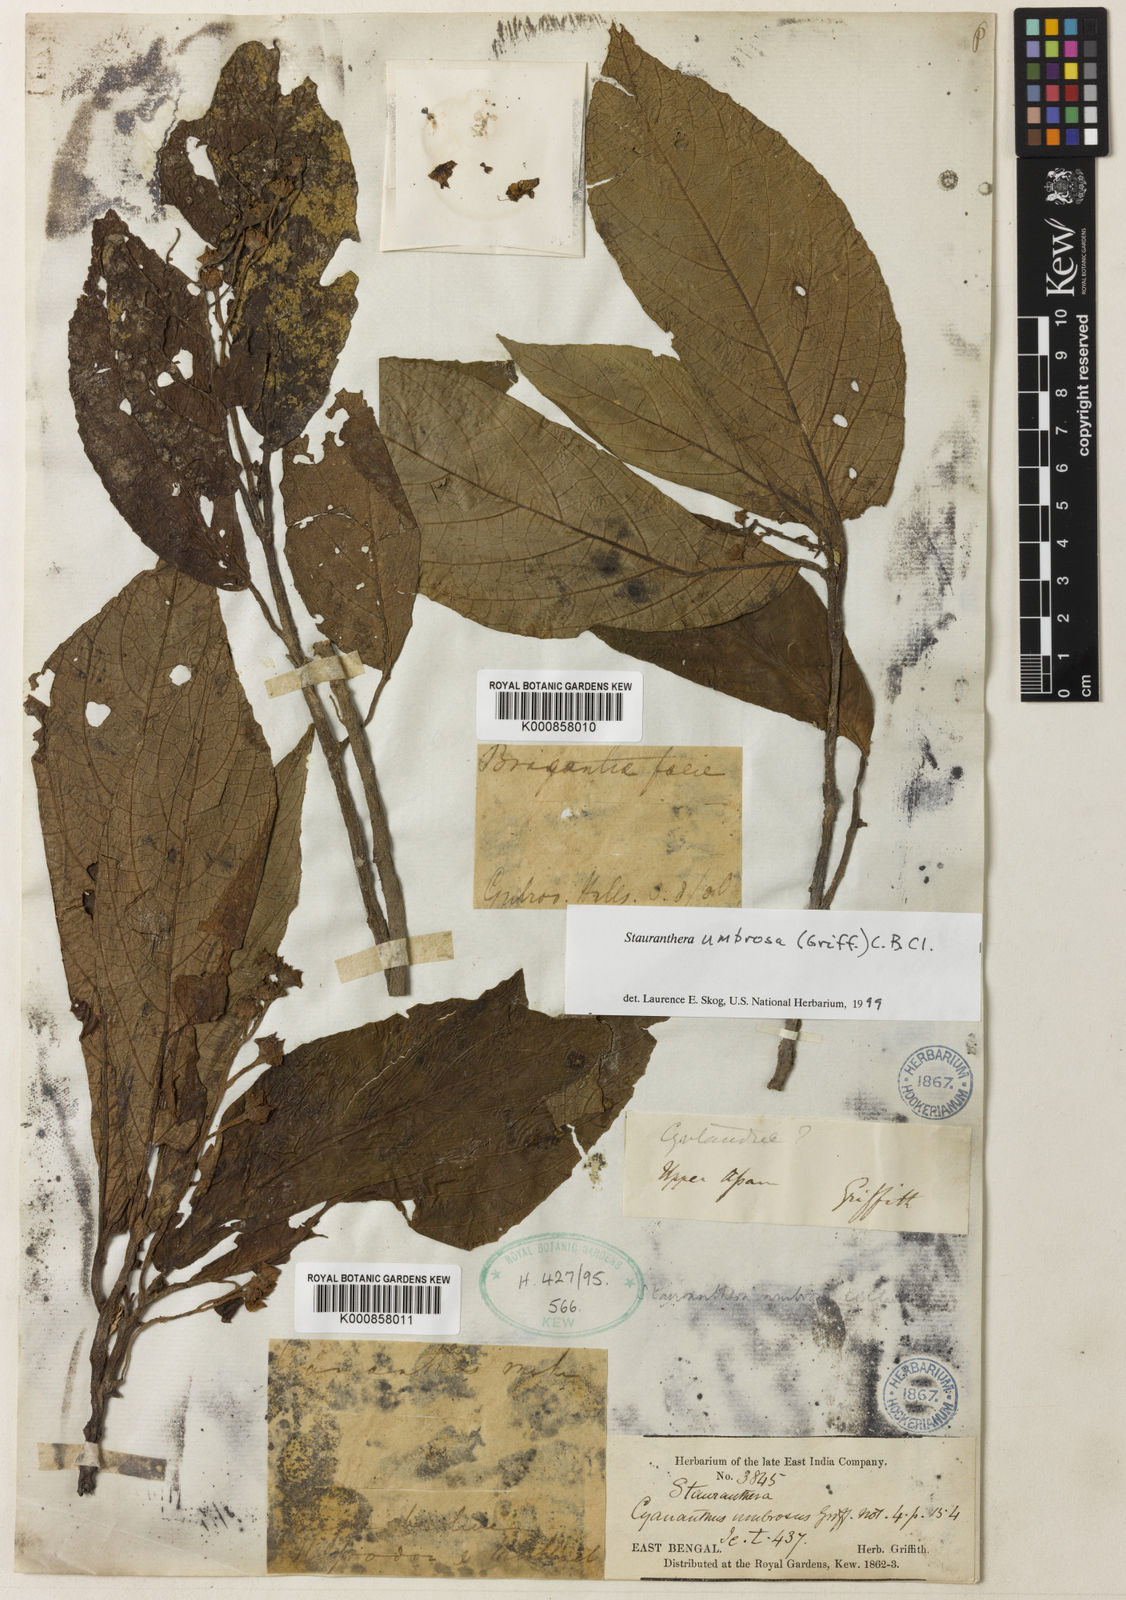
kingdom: Plantae
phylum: Tracheophyta
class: Magnoliopsida
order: Lamiales
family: Gesneriaceae
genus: Stauranthera
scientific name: Stauranthera umbrosa
